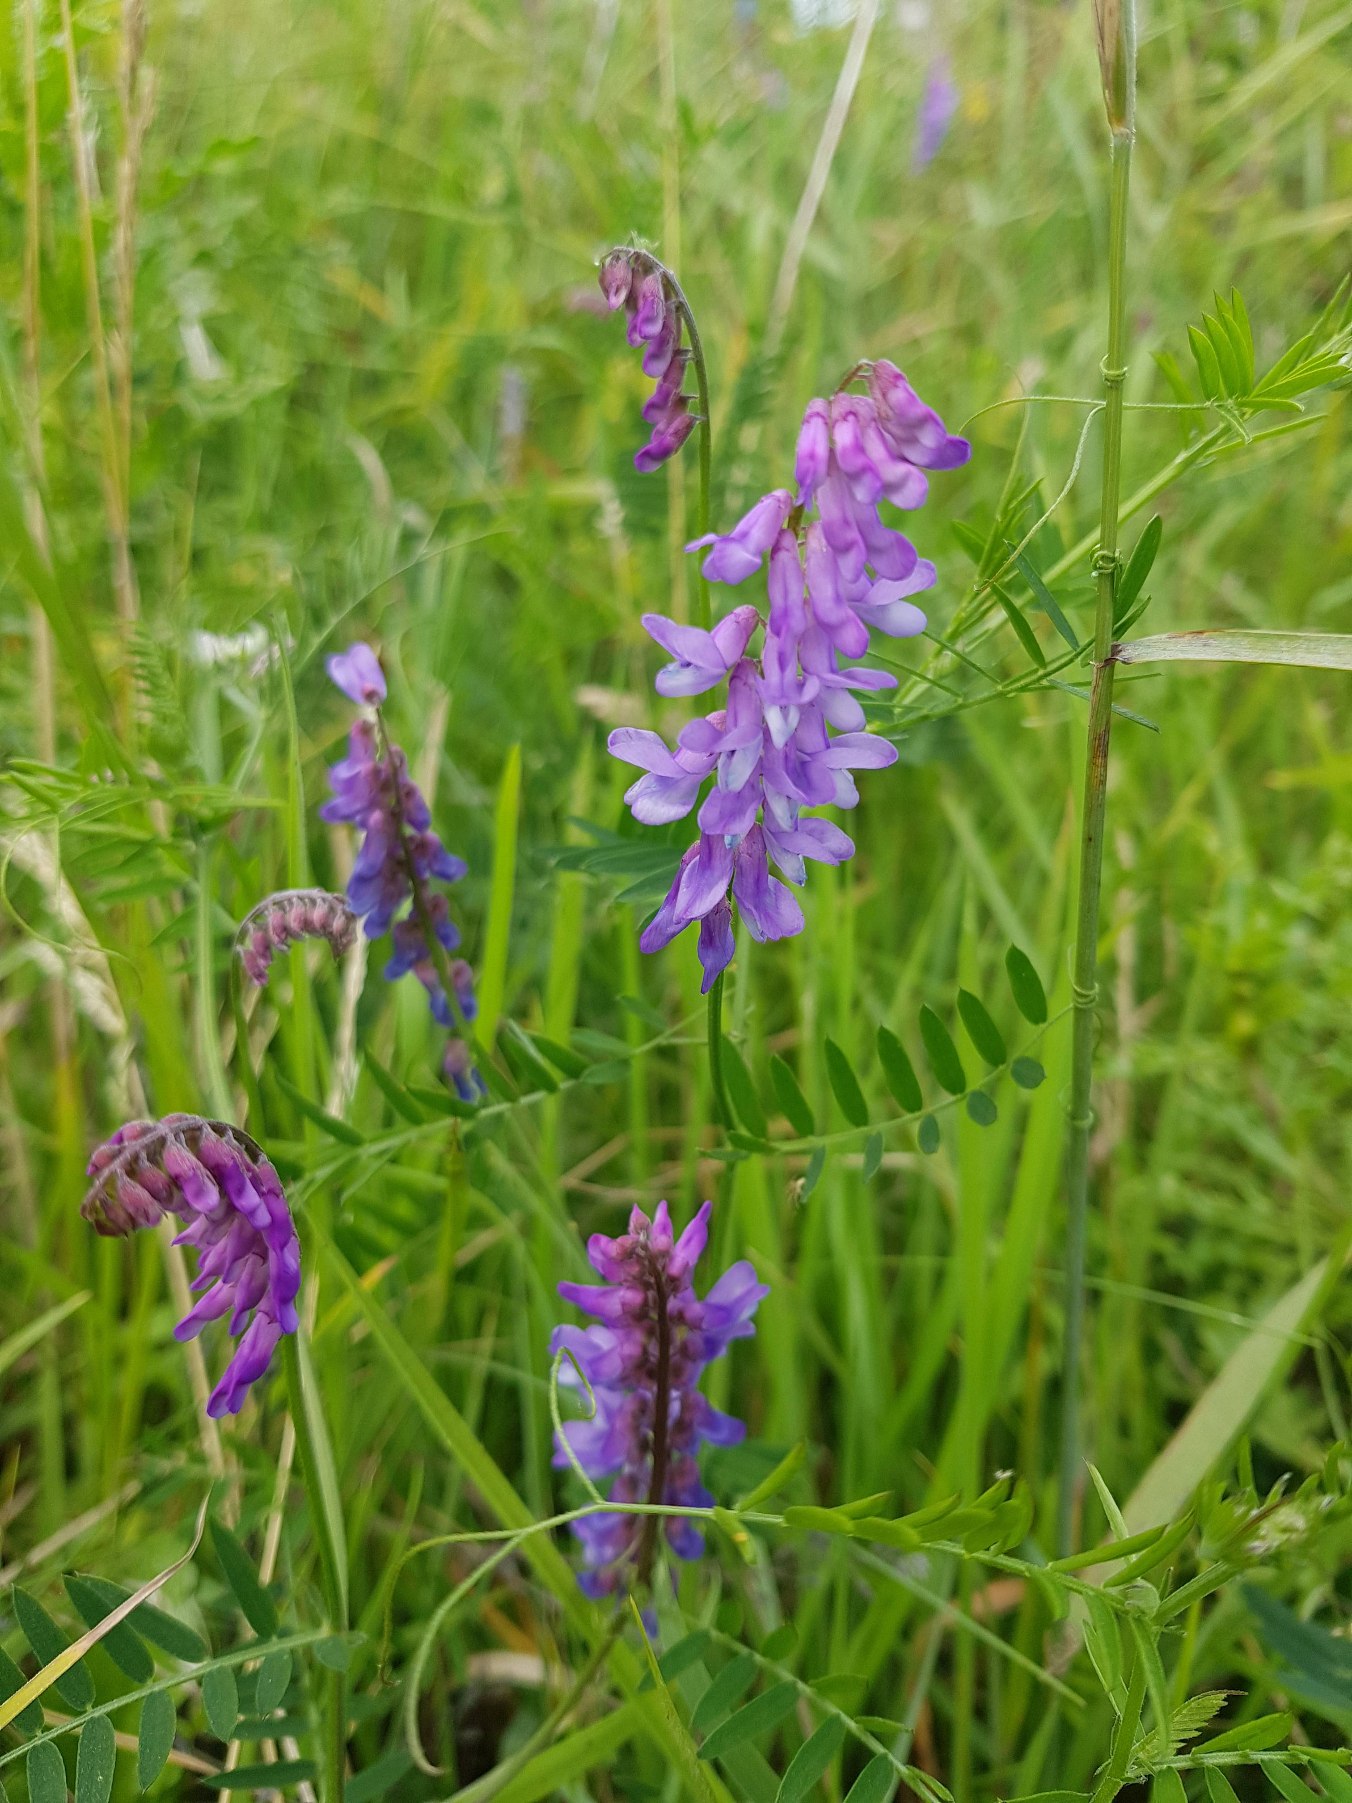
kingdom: Plantae
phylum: Tracheophyta
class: Magnoliopsida
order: Fabales
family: Fabaceae
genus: Vicia
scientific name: Vicia cracca
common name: Muse-vikke
